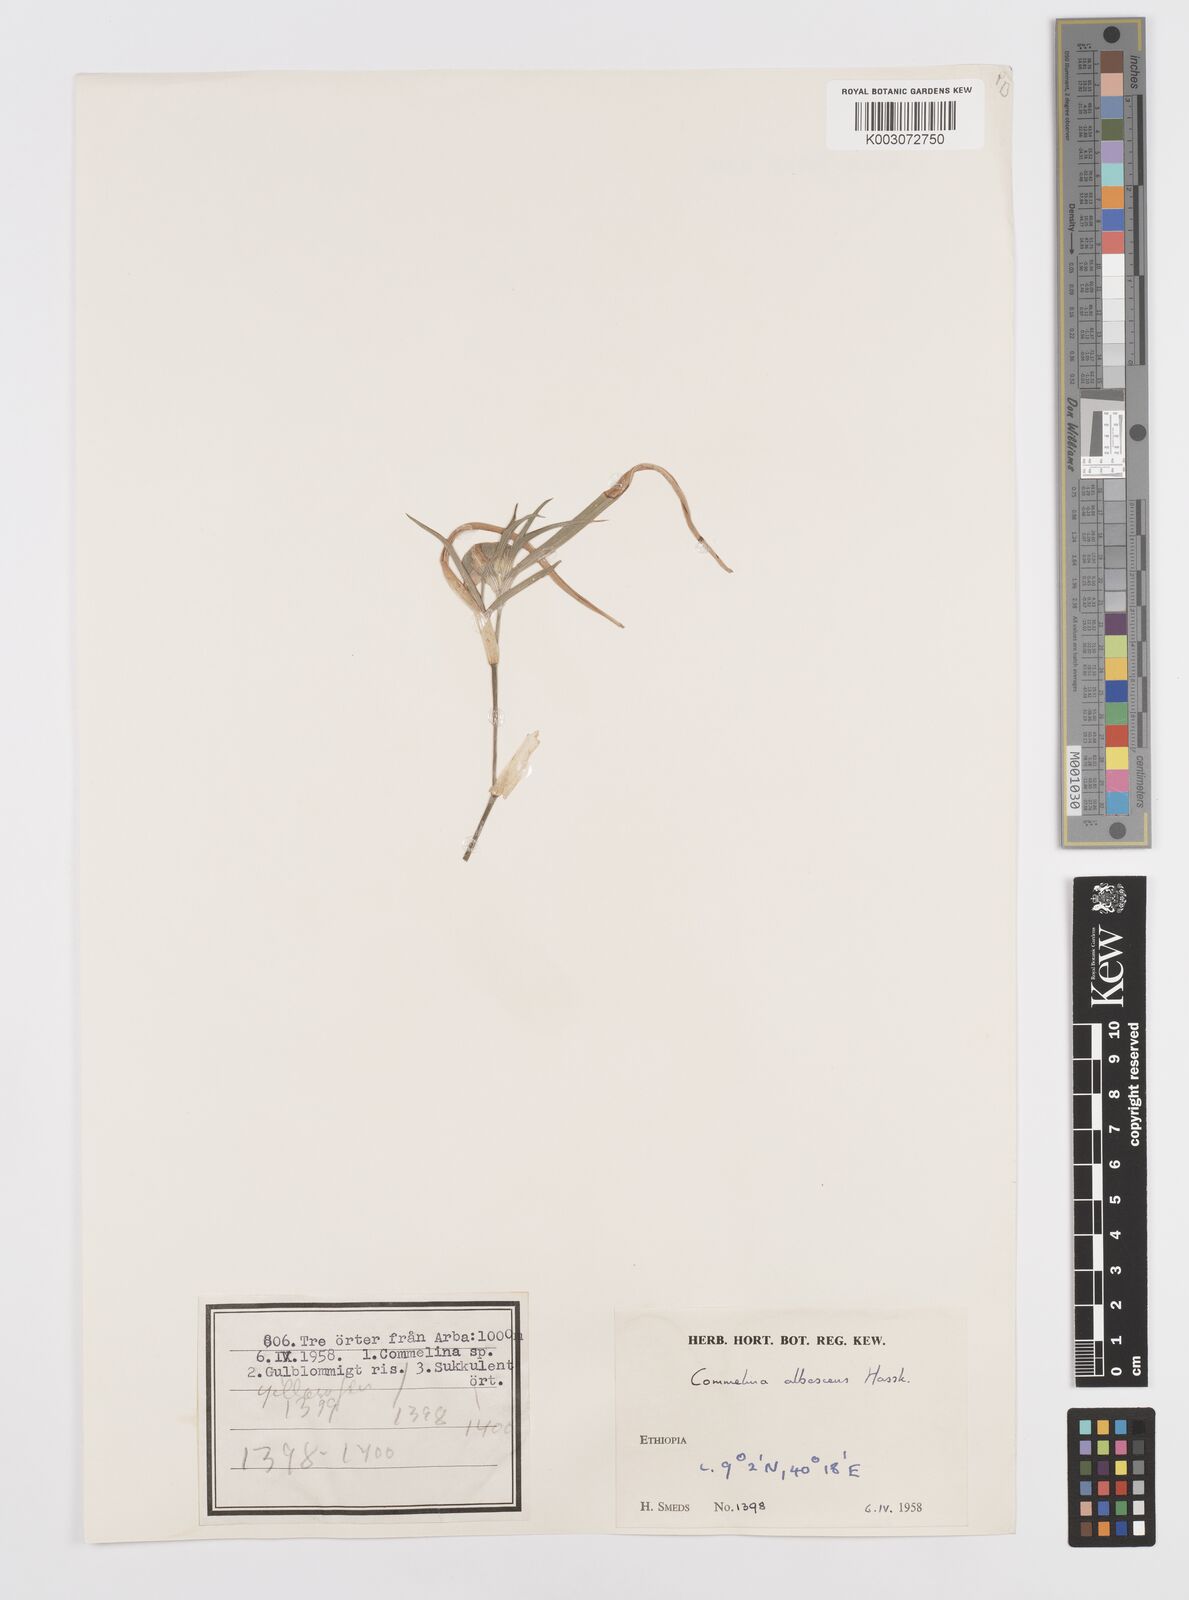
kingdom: Plantae
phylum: Tracheophyta
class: Liliopsida
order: Commelinales
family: Commelinaceae
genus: Commelina
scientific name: Commelina albescens
